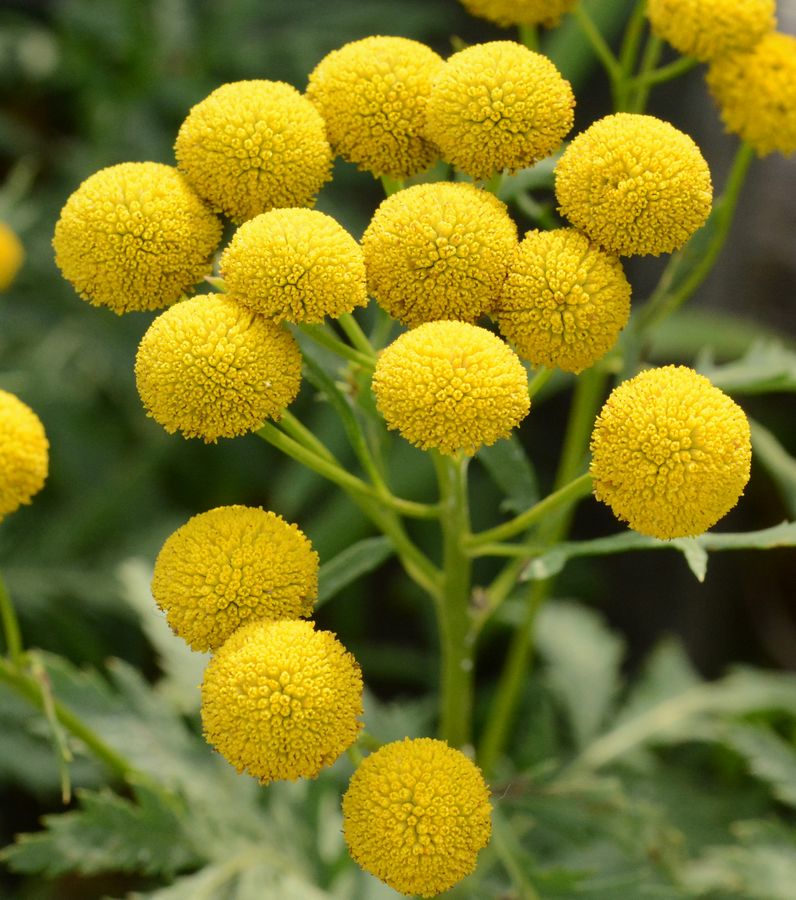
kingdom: Plantae
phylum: Tracheophyta
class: Magnoliopsida
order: Asterales
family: Asteraceae
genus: Tanacetum
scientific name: Tanacetum vulgare
